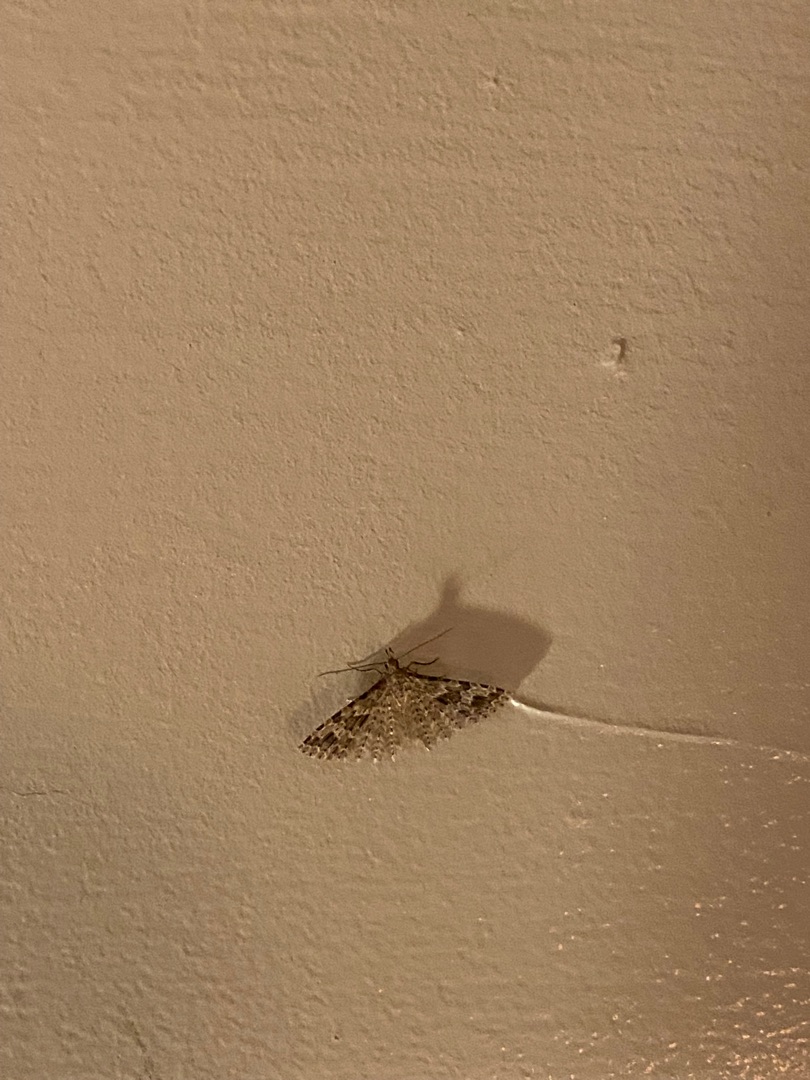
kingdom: Animalia
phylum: Arthropoda
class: Insecta
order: Lepidoptera
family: Alucitidae
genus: Alucita
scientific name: Alucita hexadactyla
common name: Kaprifoliefjermøl
